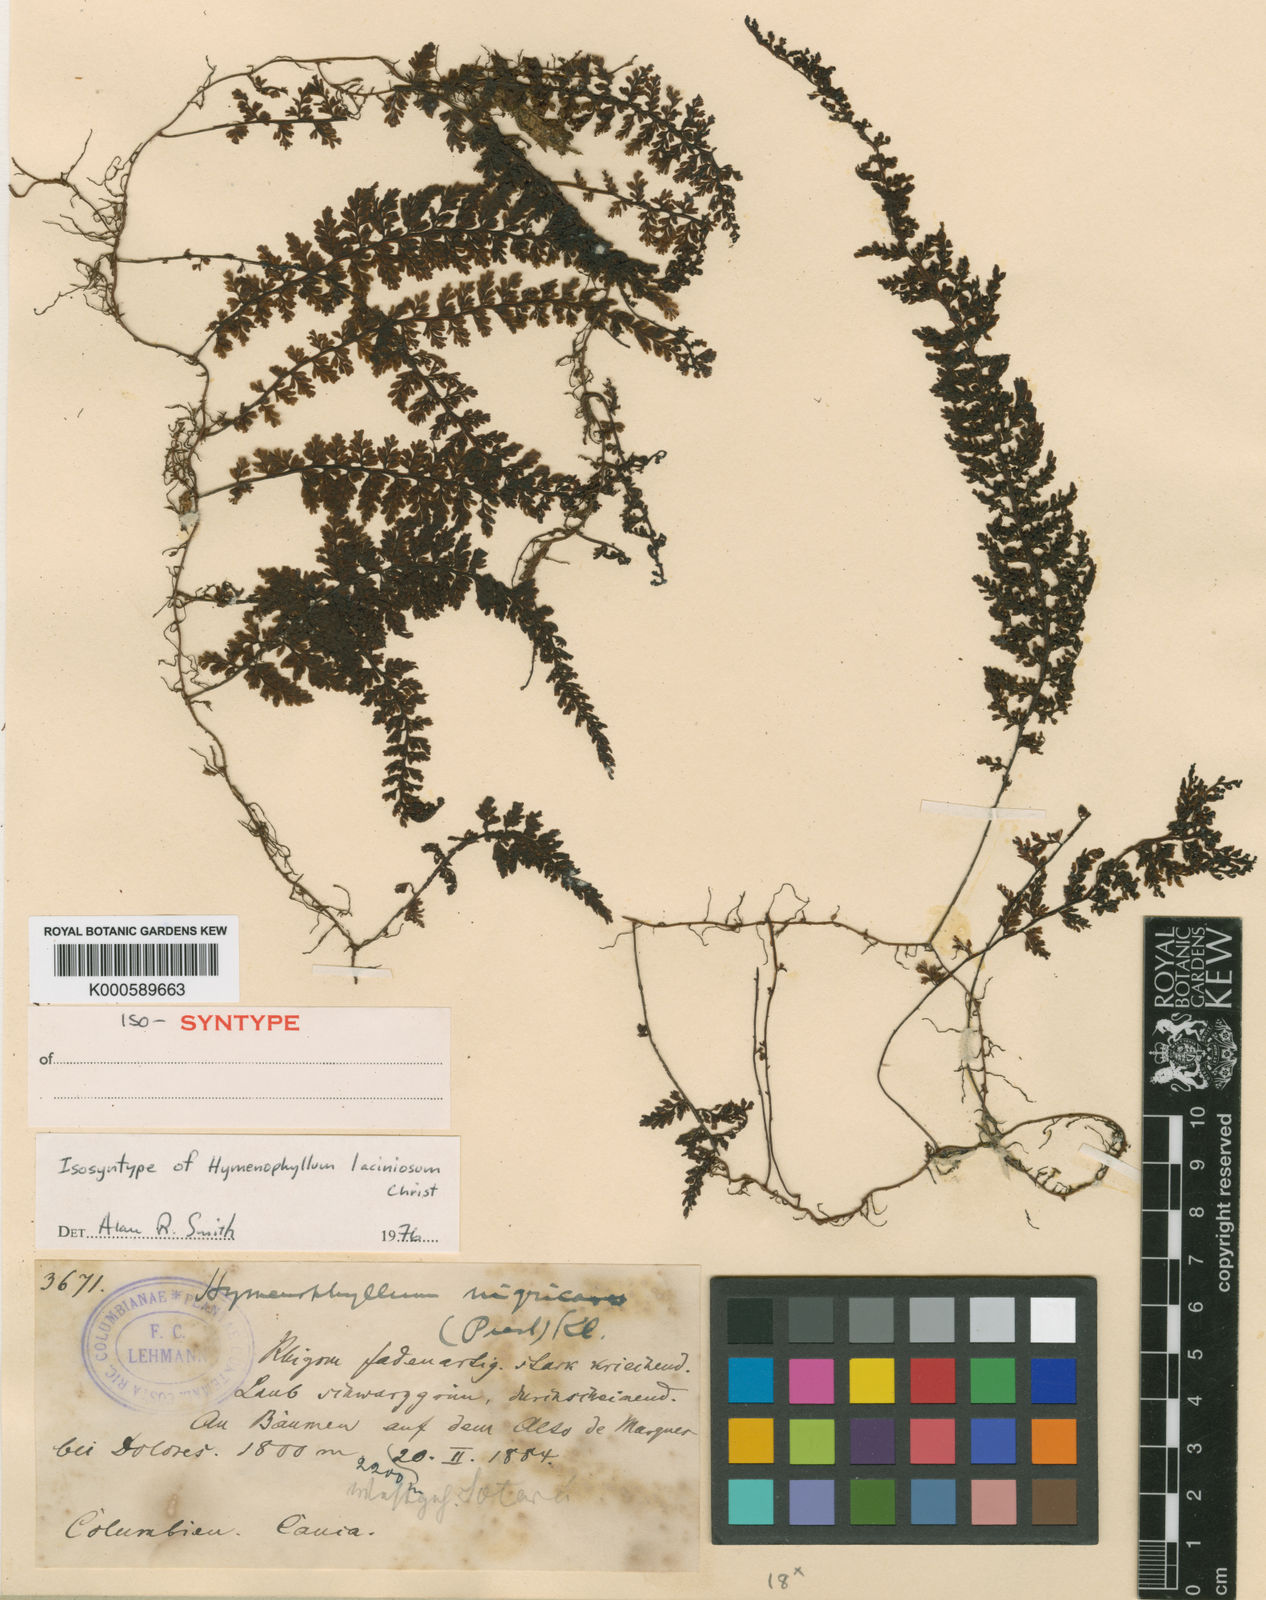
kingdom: Plantae
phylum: Tracheophyta
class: Polypodiopsida
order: Hymenophyllales
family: Hymenophyllaceae
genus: Hymenophyllum
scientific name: Hymenophyllum myriocarpum
